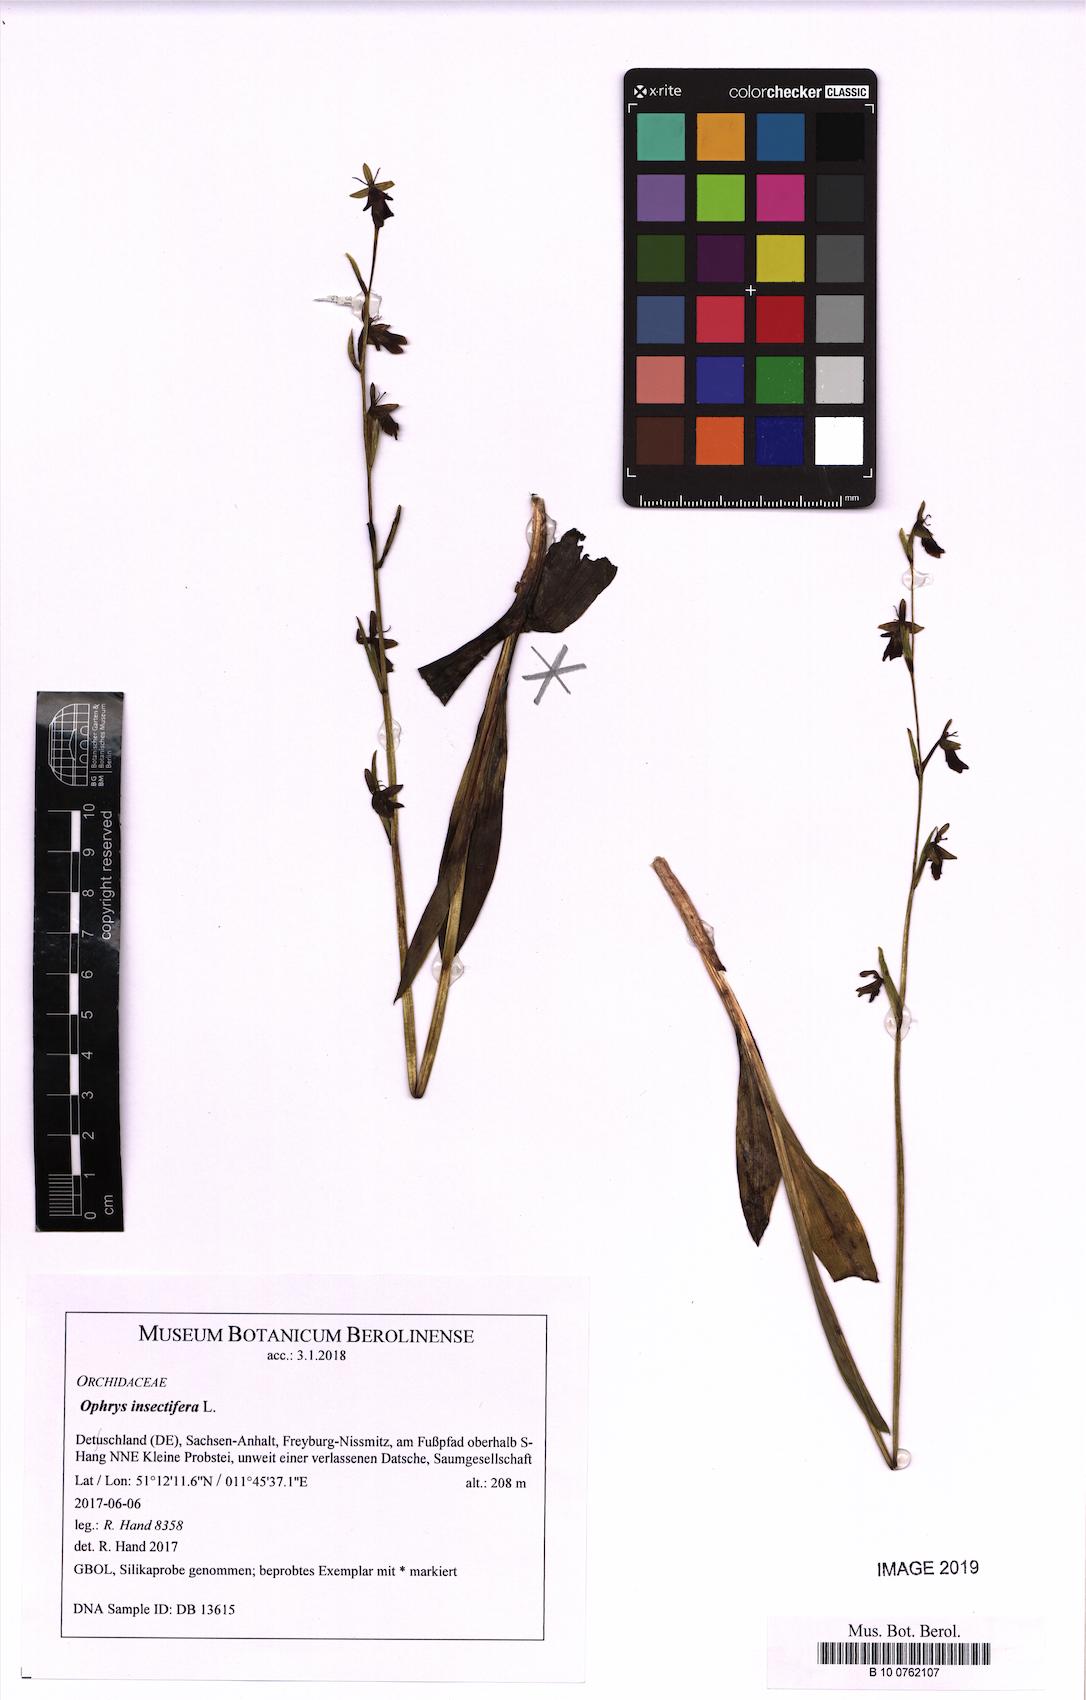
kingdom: Plantae
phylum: Tracheophyta
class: Liliopsida
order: Asparagales
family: Orchidaceae
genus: Ophrys
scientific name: Ophrys insectifera
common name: Fly orchid
